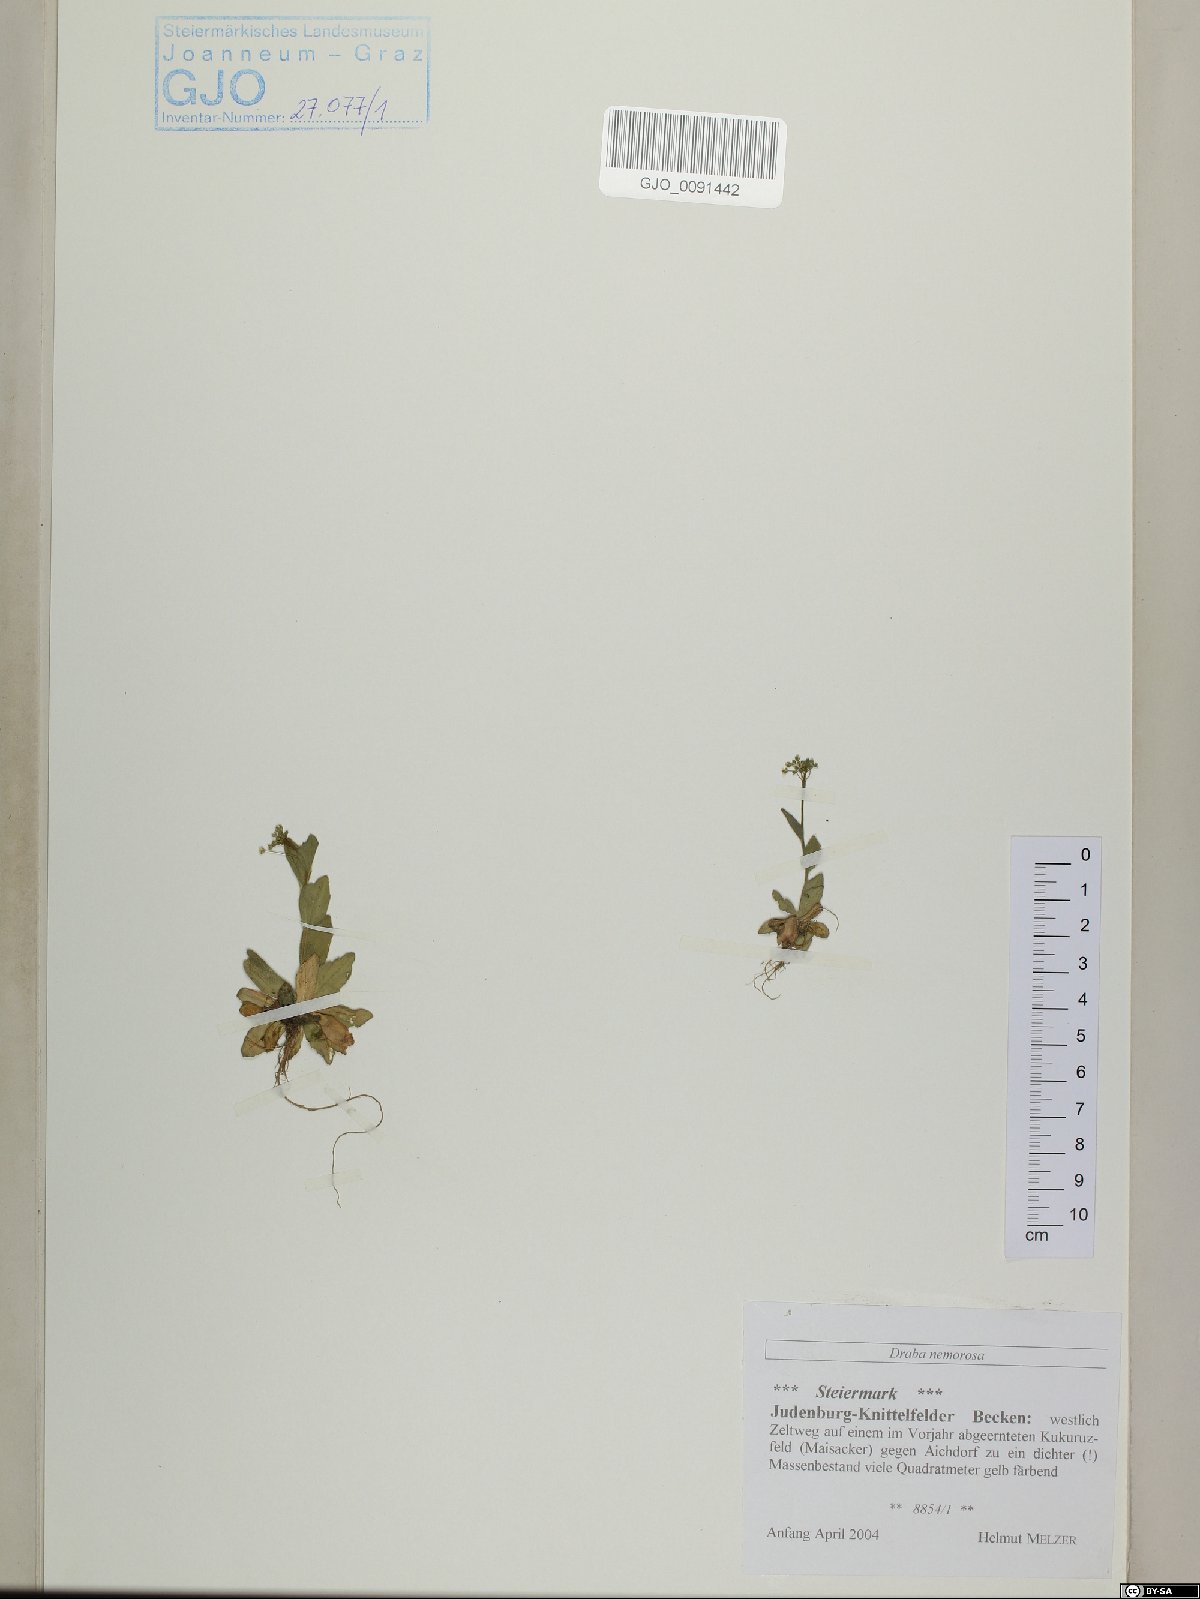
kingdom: Plantae
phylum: Tracheophyta
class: Magnoliopsida
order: Brassicales
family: Brassicaceae
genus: Draba
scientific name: Draba nemorosa
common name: Wood whitlow-grass
